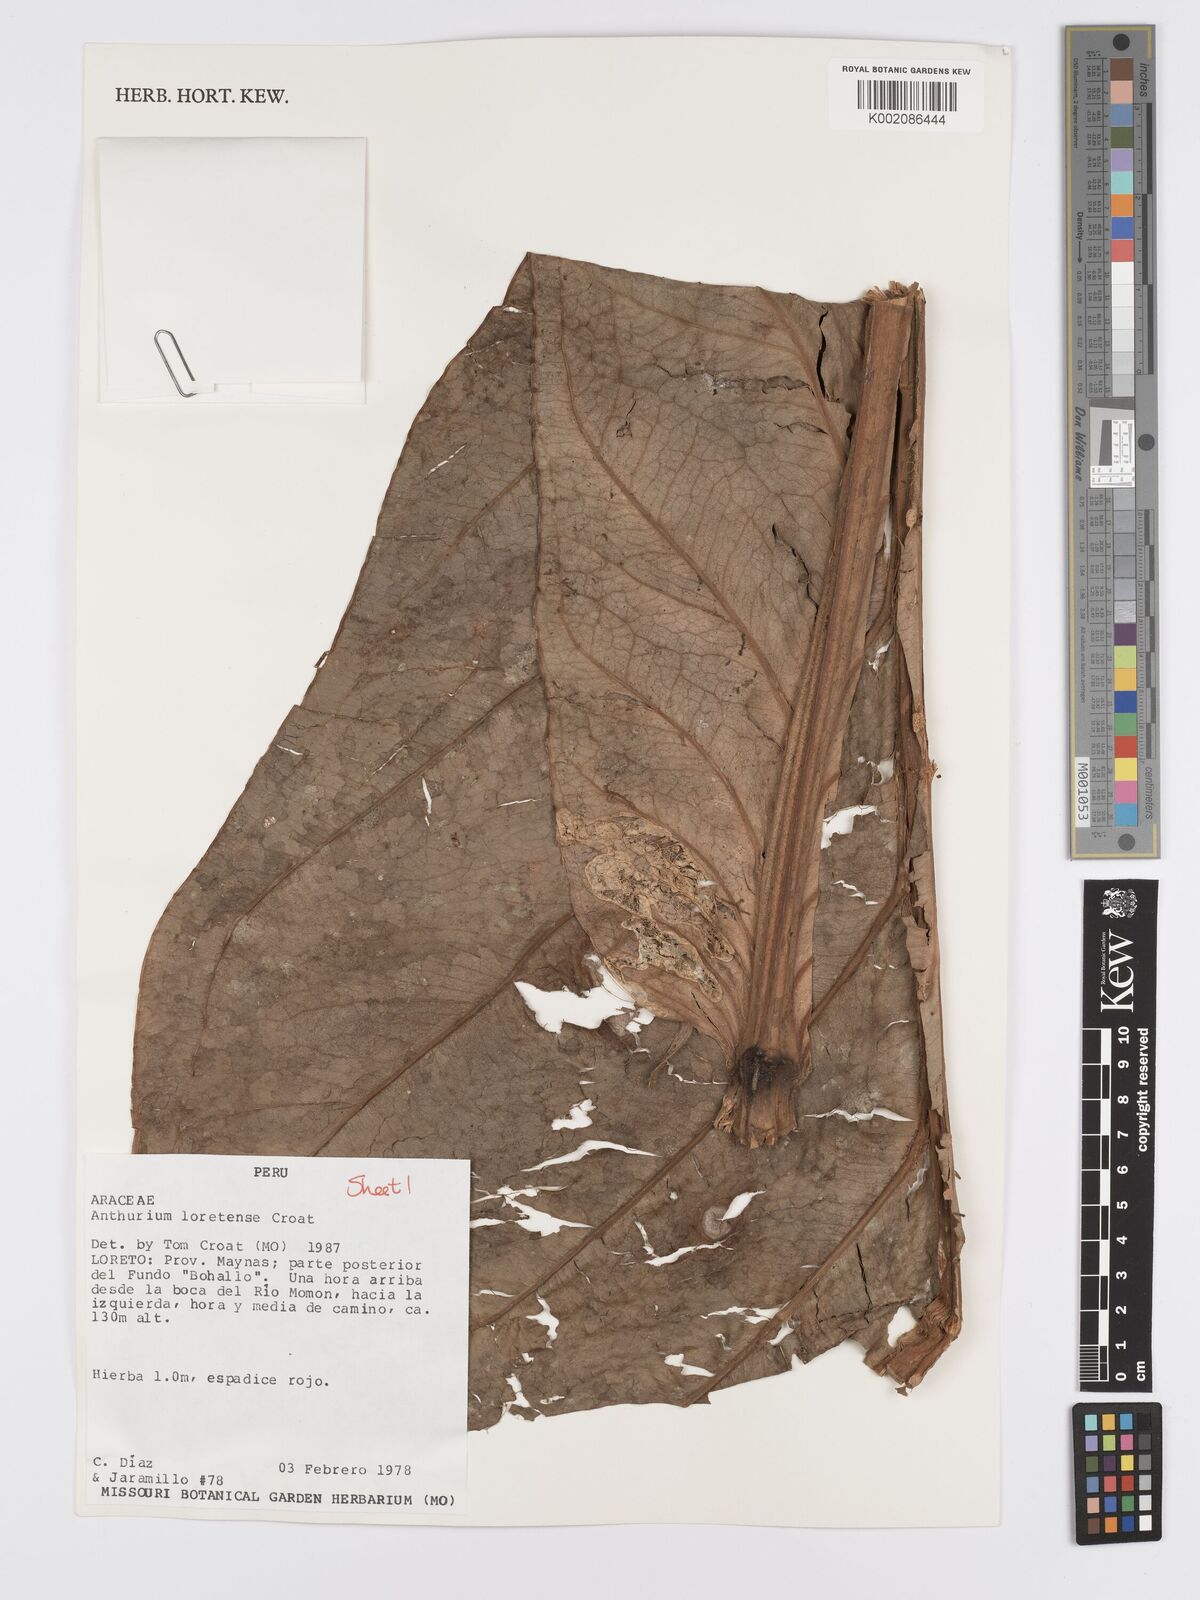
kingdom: Plantae
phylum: Tracheophyta
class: Liliopsida
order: Alismatales
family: Araceae
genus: Anthurium
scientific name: Anthurium loretense
